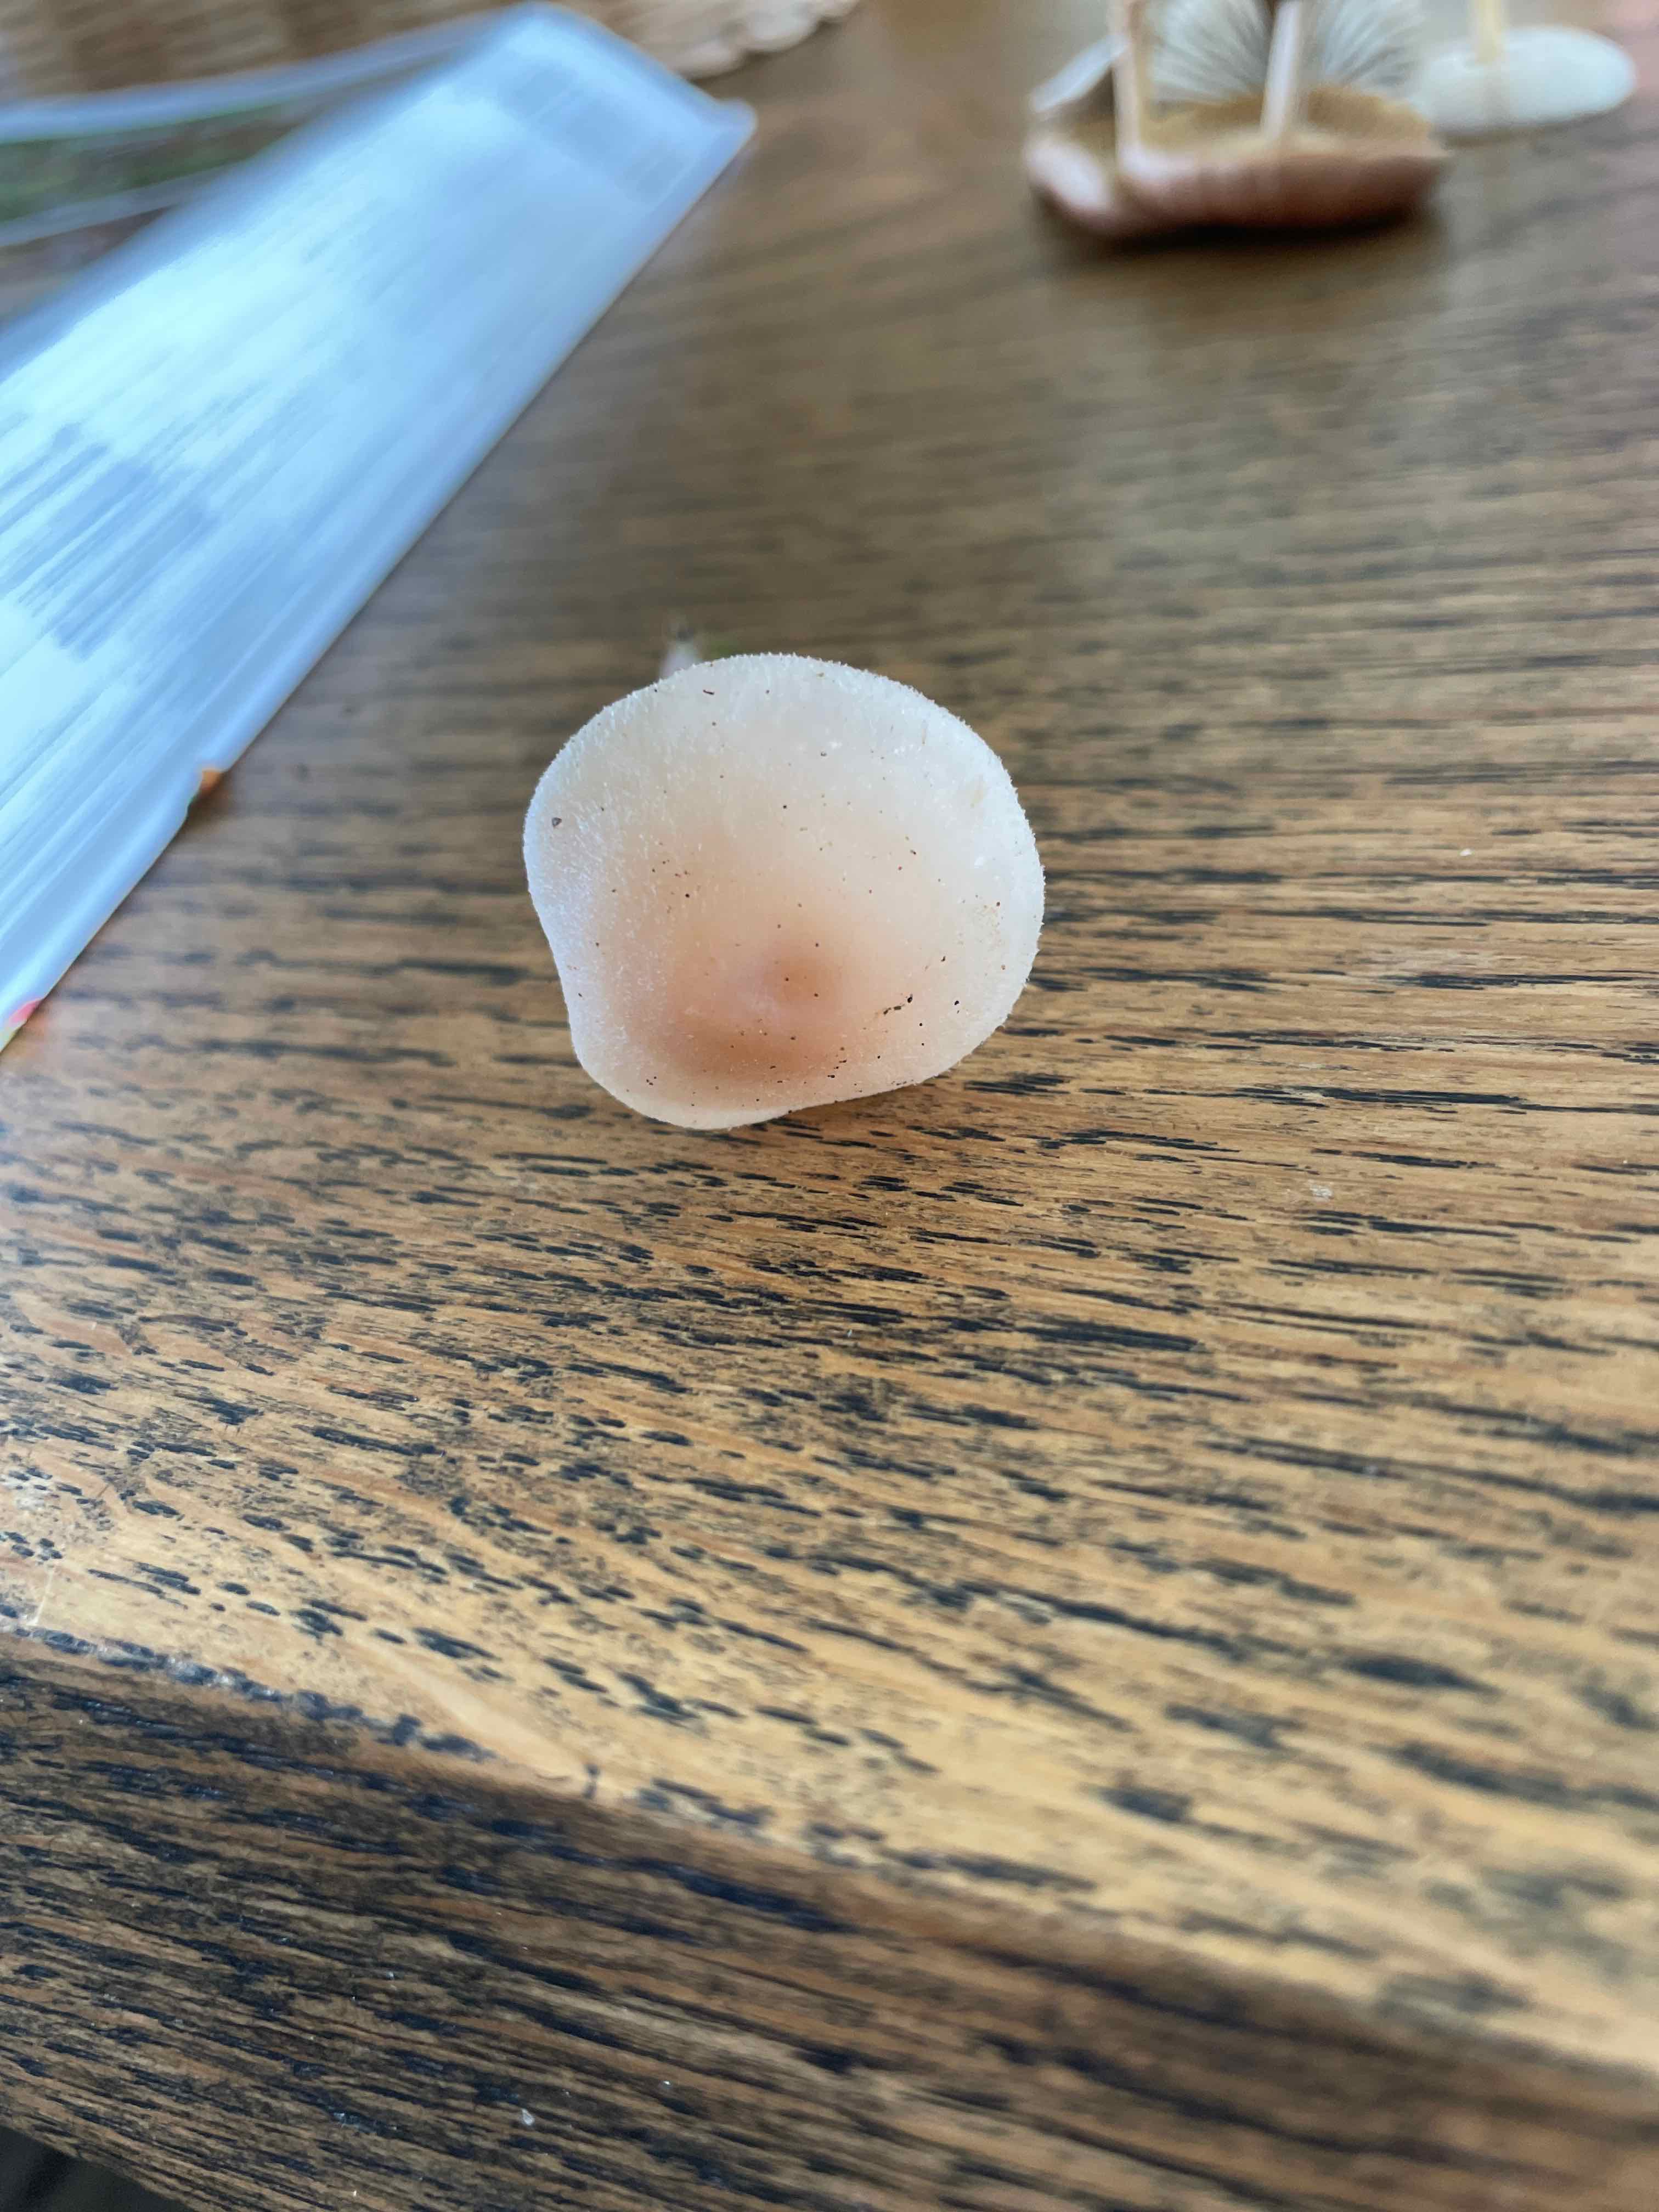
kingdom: Fungi
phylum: Basidiomycota
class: Agaricomycetes
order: Agaricales
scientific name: Agaricales
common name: champignonordenen
